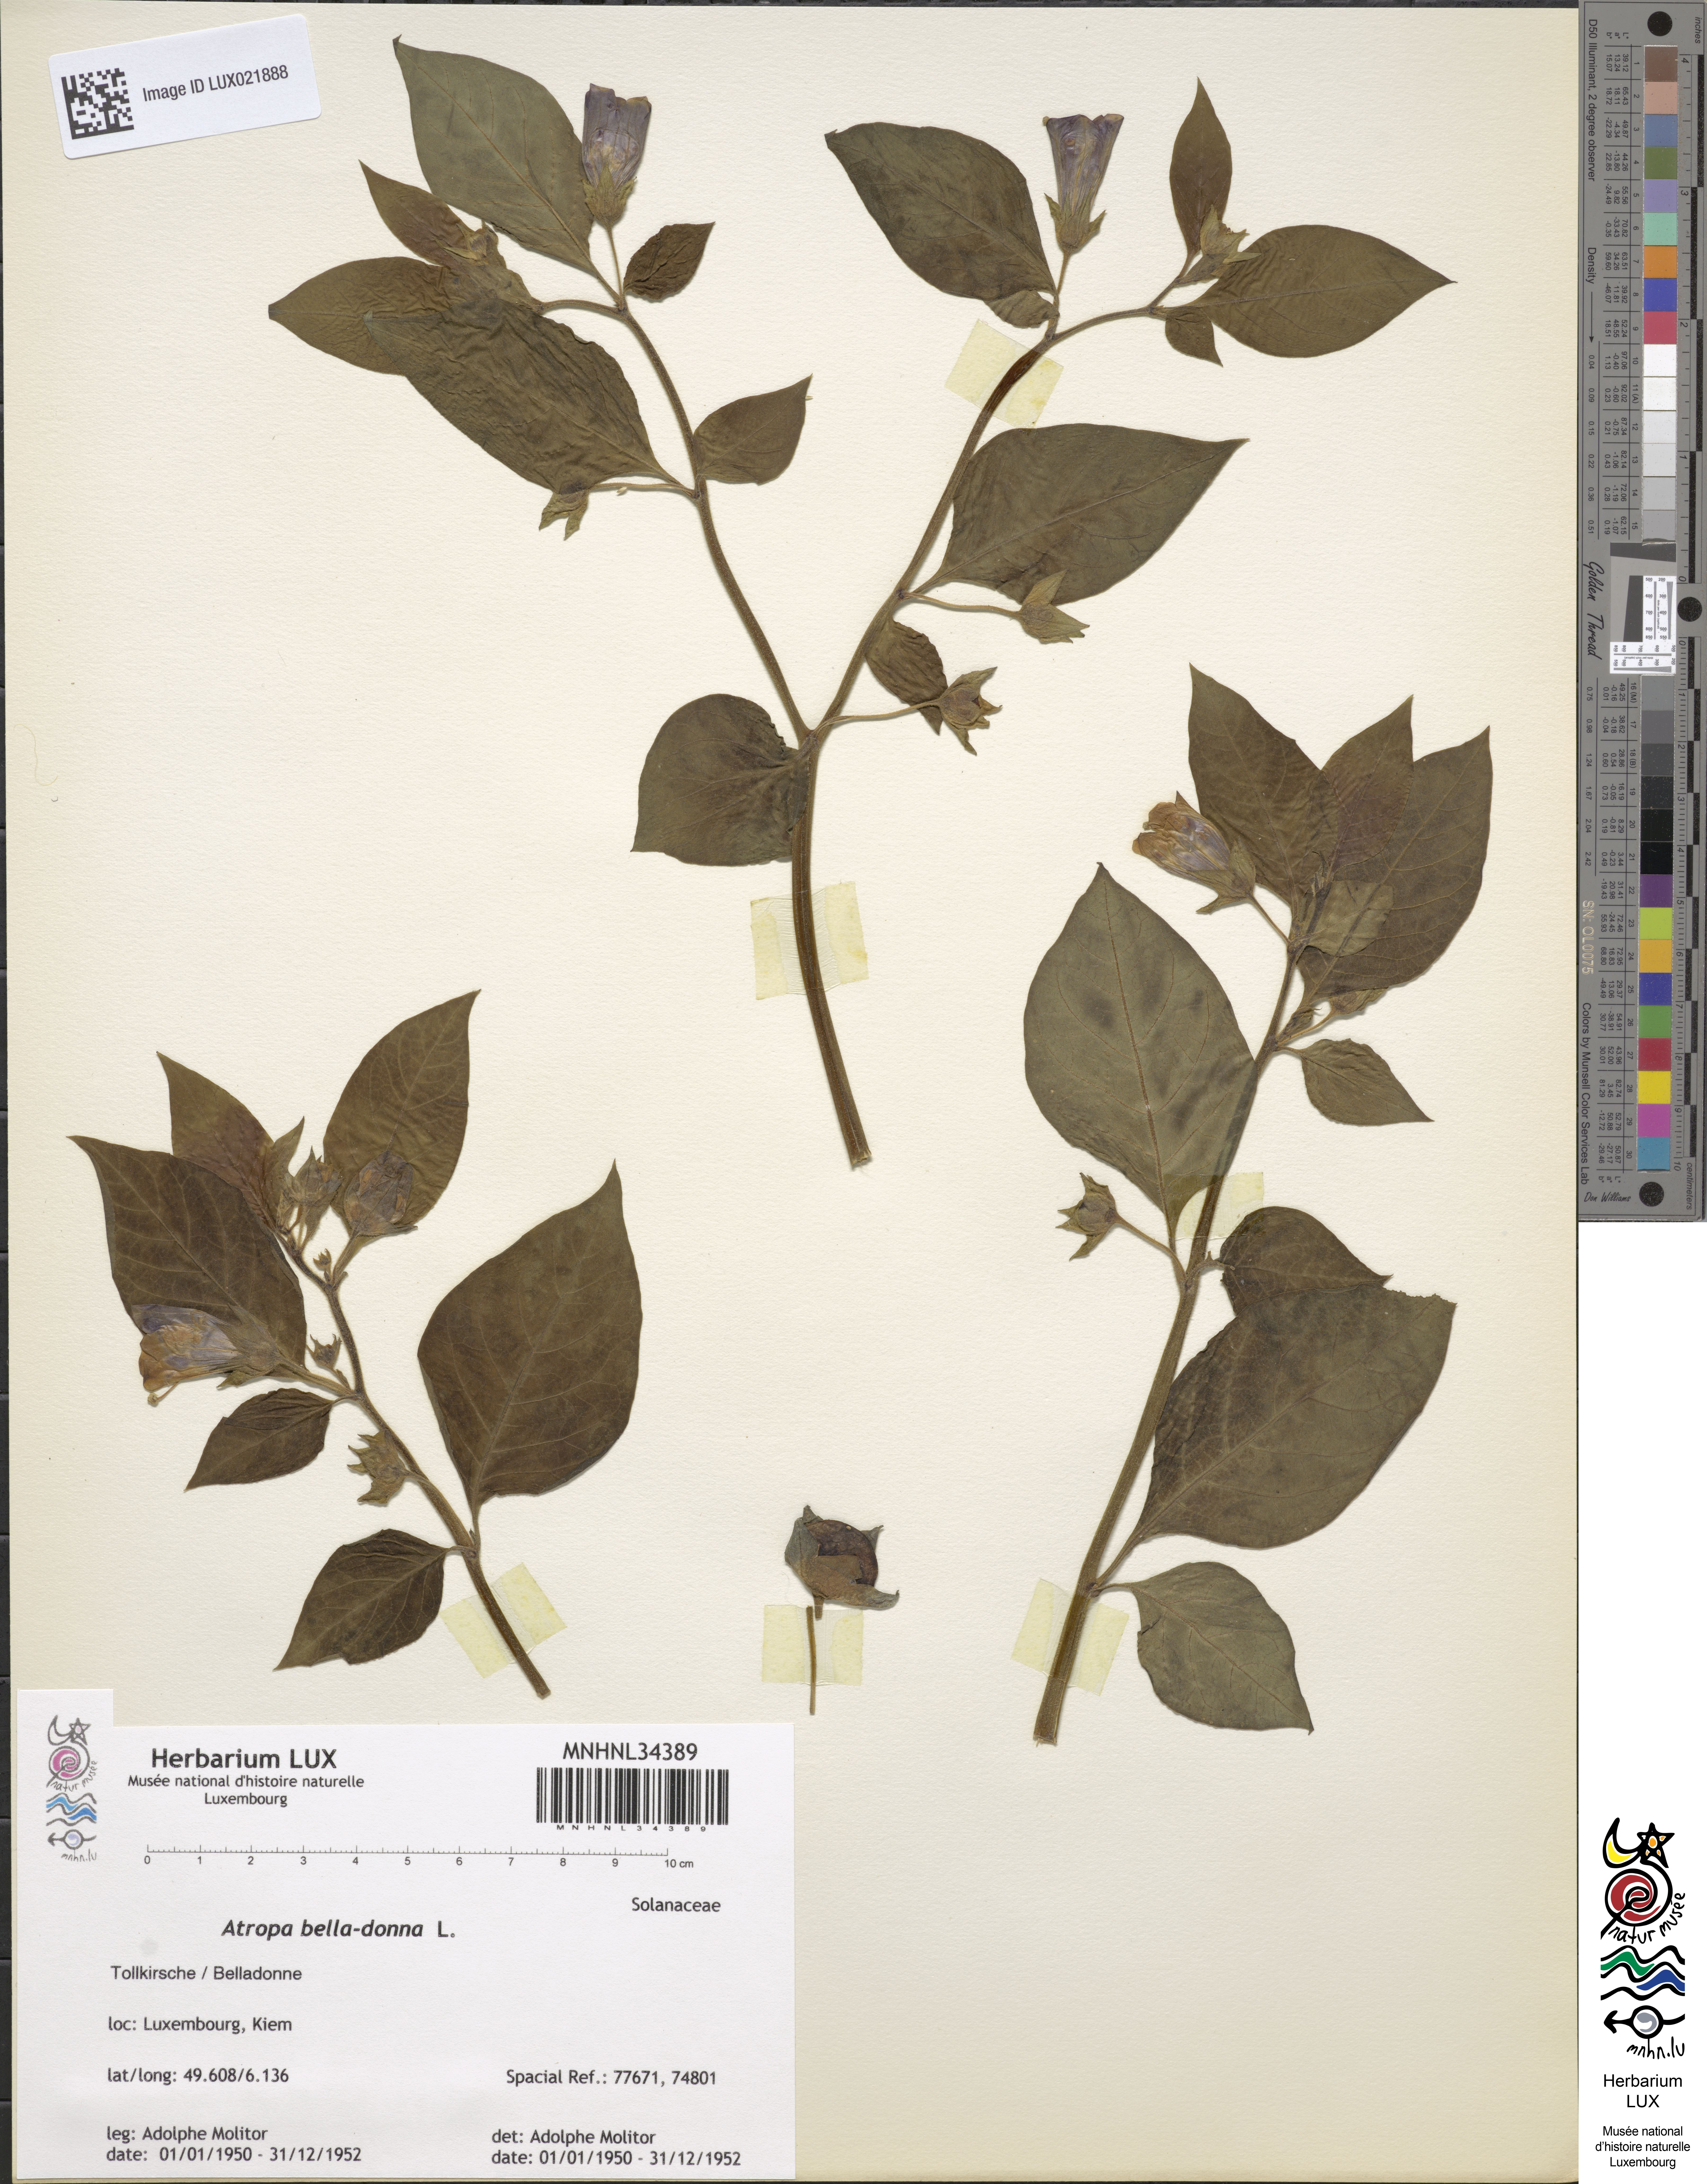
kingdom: Plantae
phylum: Tracheophyta
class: Magnoliopsida
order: Solanales
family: Solanaceae
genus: Atropa
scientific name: Atropa belladonna
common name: Deadly nightshade
